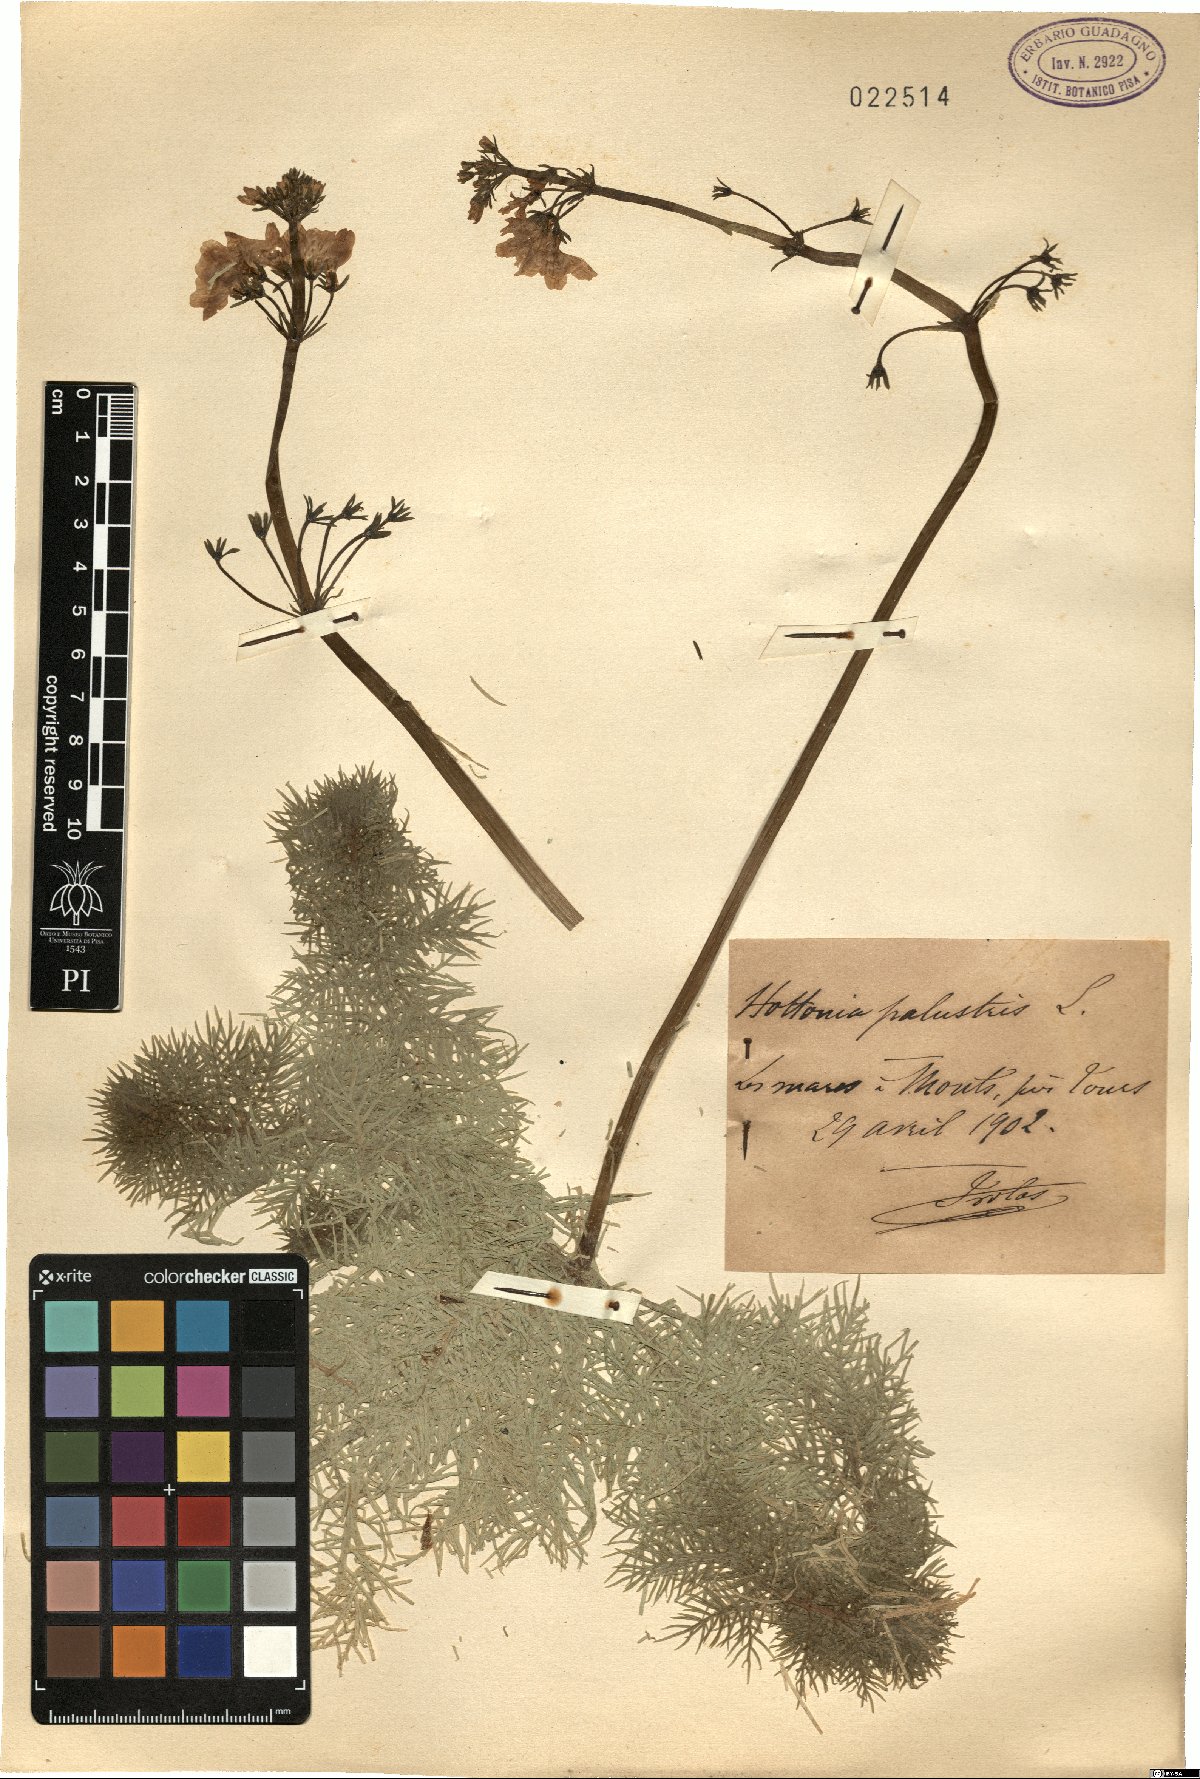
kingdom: Plantae
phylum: Tracheophyta
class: Magnoliopsida
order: Ericales
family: Primulaceae
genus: Hottonia
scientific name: Hottonia palustris
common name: Water-violet
